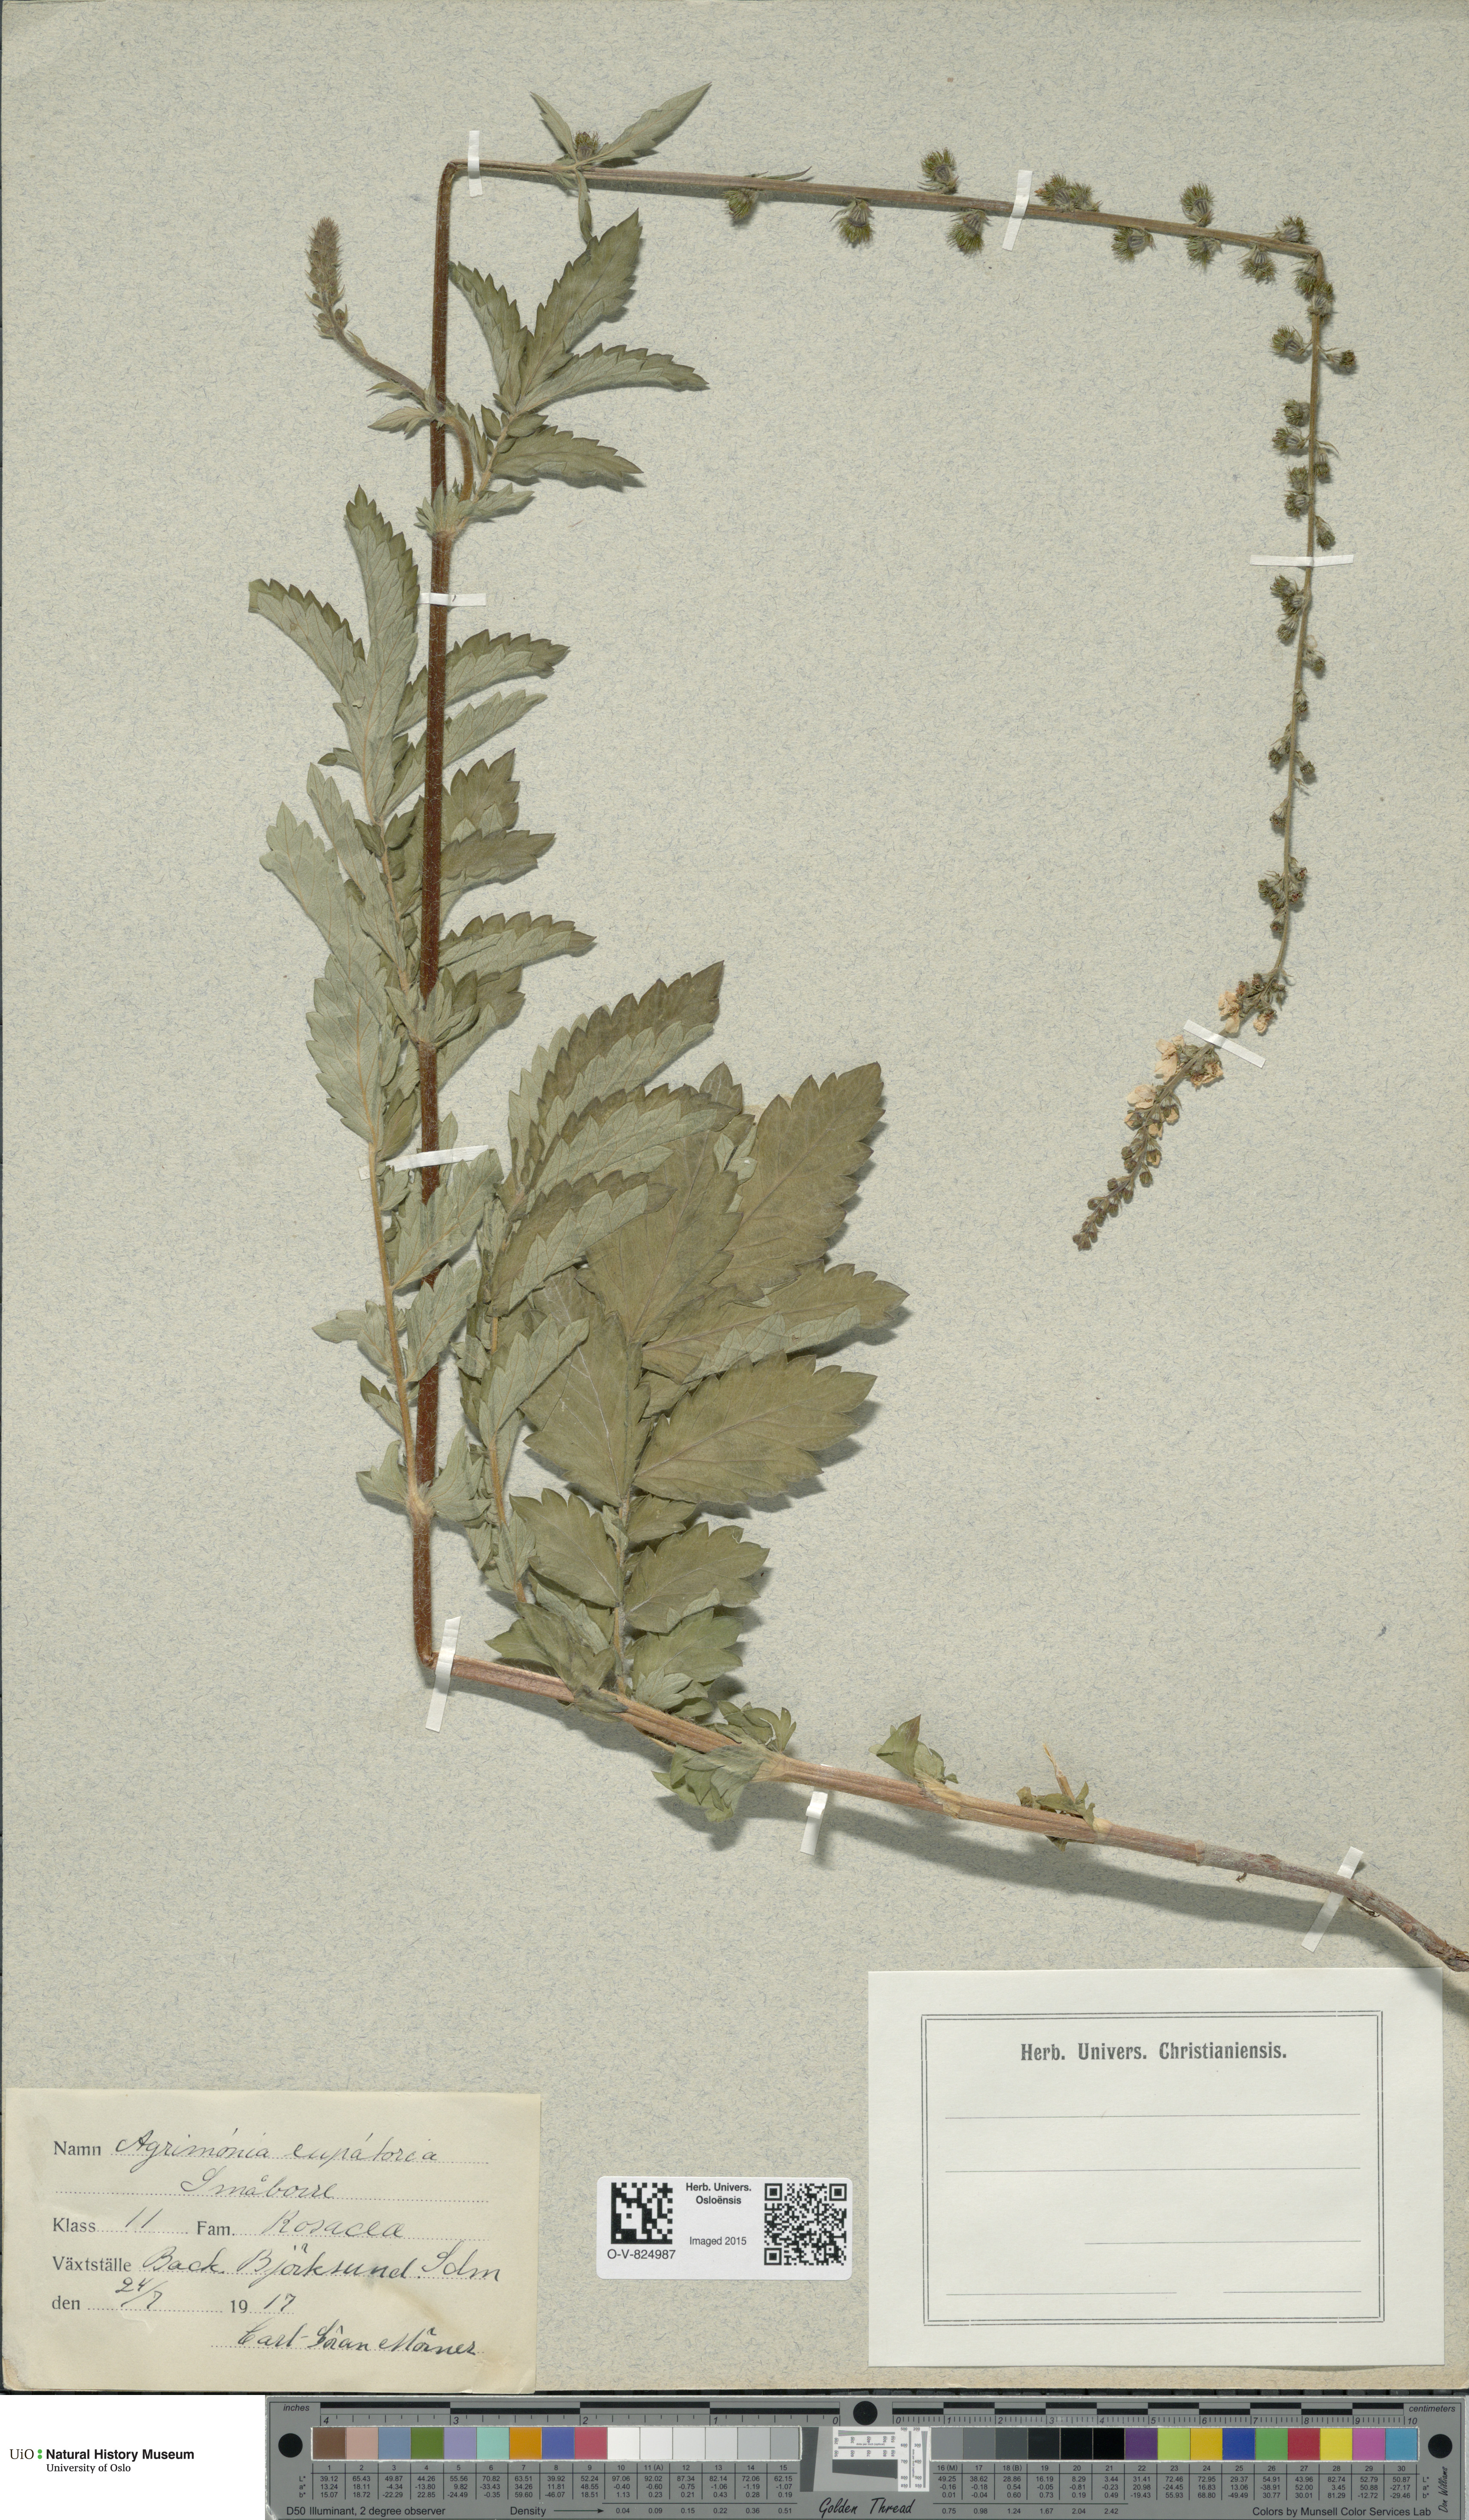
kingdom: Plantae
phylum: Tracheophyta
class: Magnoliopsida
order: Rosales
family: Rosaceae
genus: Agrimonia
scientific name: Agrimonia eupatoria
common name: Agrimony
